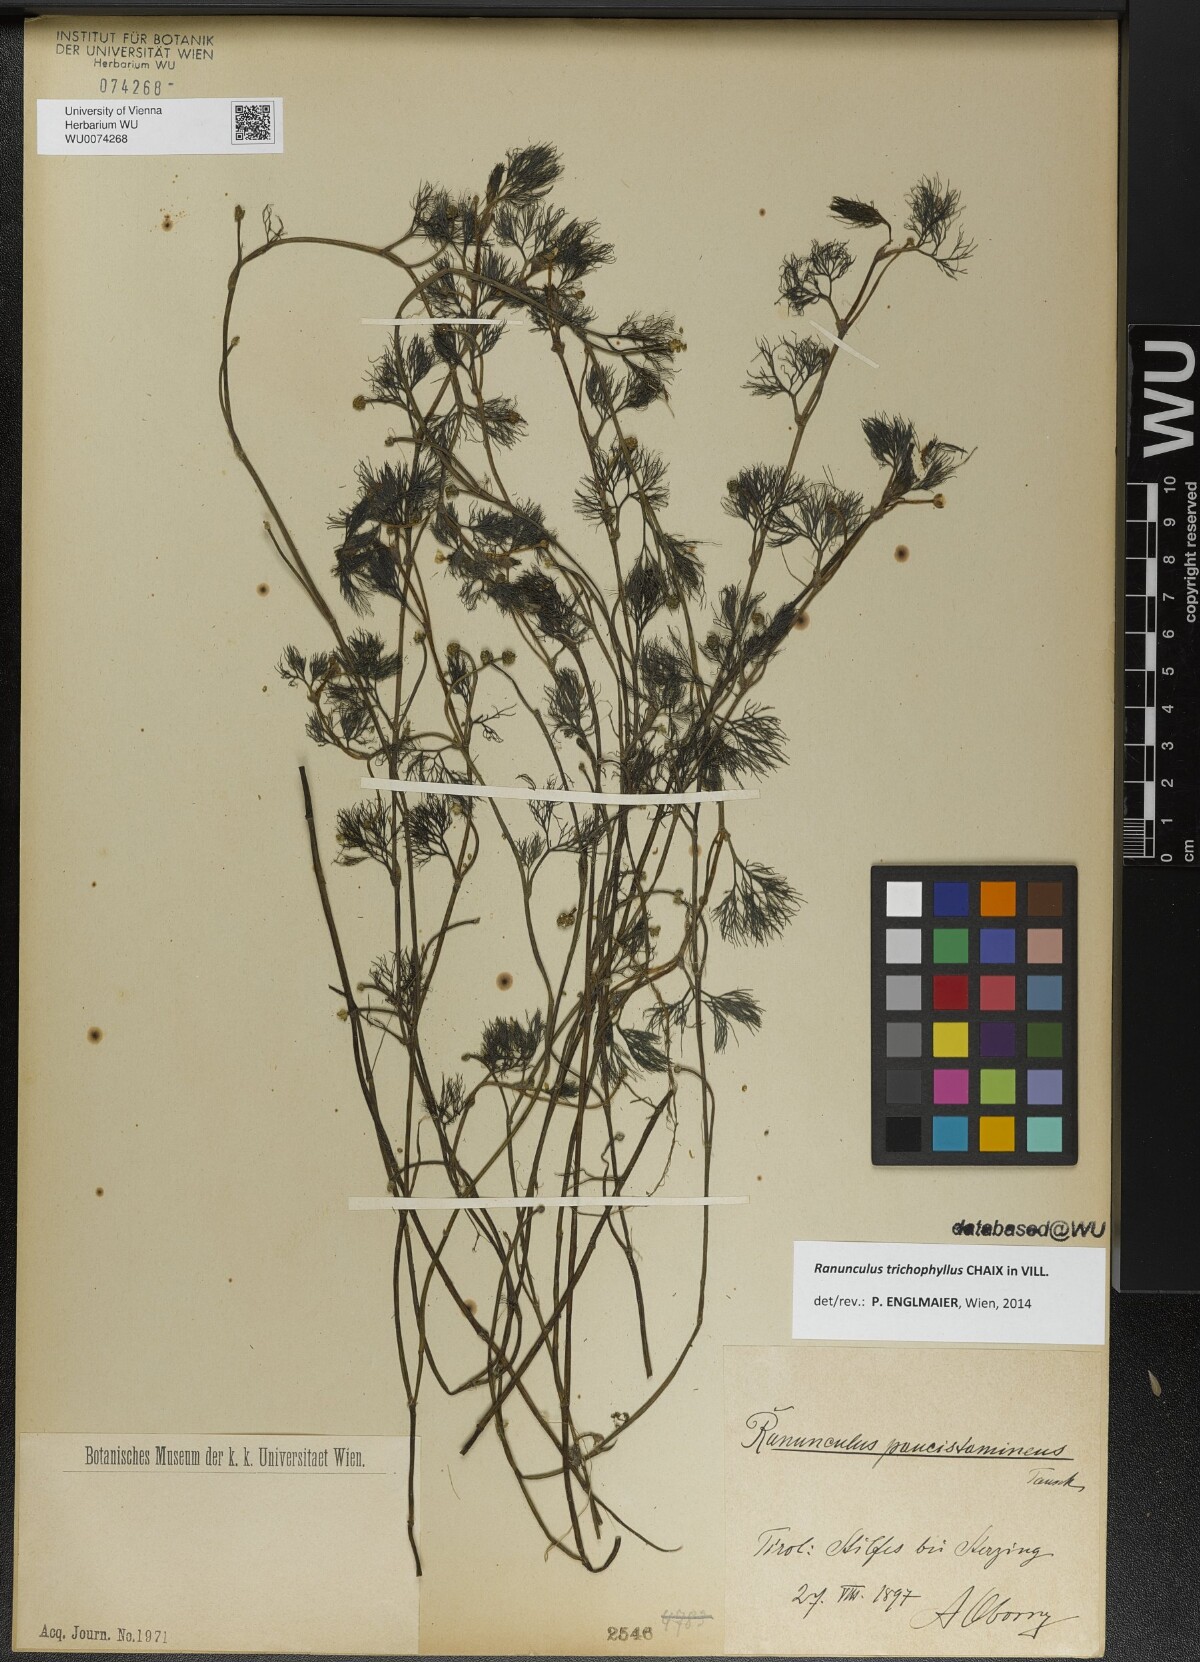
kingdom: Plantae
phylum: Tracheophyta
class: Magnoliopsida
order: Ranunculales
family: Ranunculaceae
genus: Ranunculus
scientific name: Ranunculus trichophyllus
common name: Thread-leaved water-crowfoot
